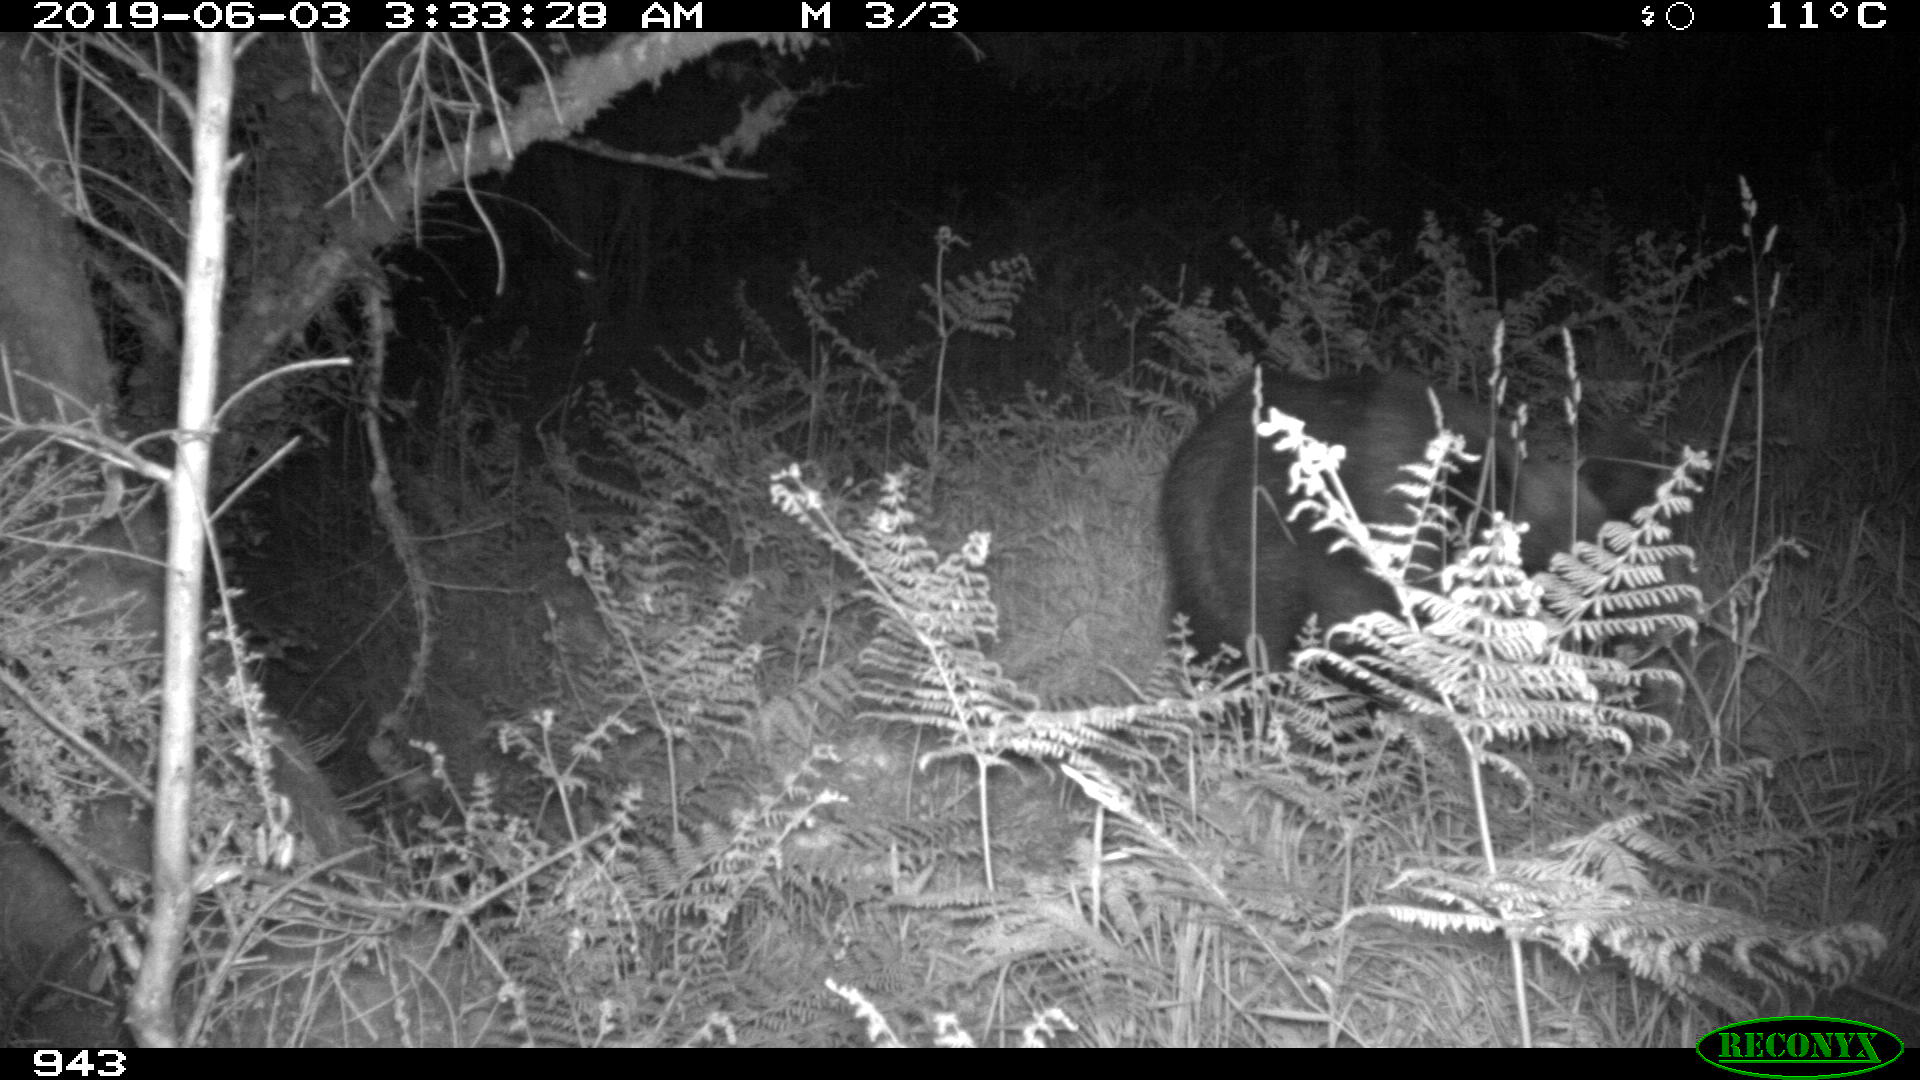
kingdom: Animalia
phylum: Chordata
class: Mammalia
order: Artiodactyla
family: Suidae
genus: Sus
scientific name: Sus scrofa
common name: Wild boar
